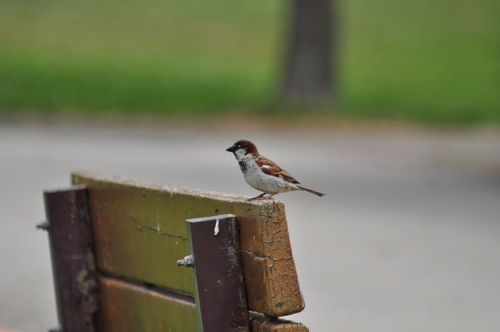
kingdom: Animalia
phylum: Chordata
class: Aves
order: Passeriformes
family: Passeridae
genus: Passer
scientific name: Passer domesticus
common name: House sparrow
